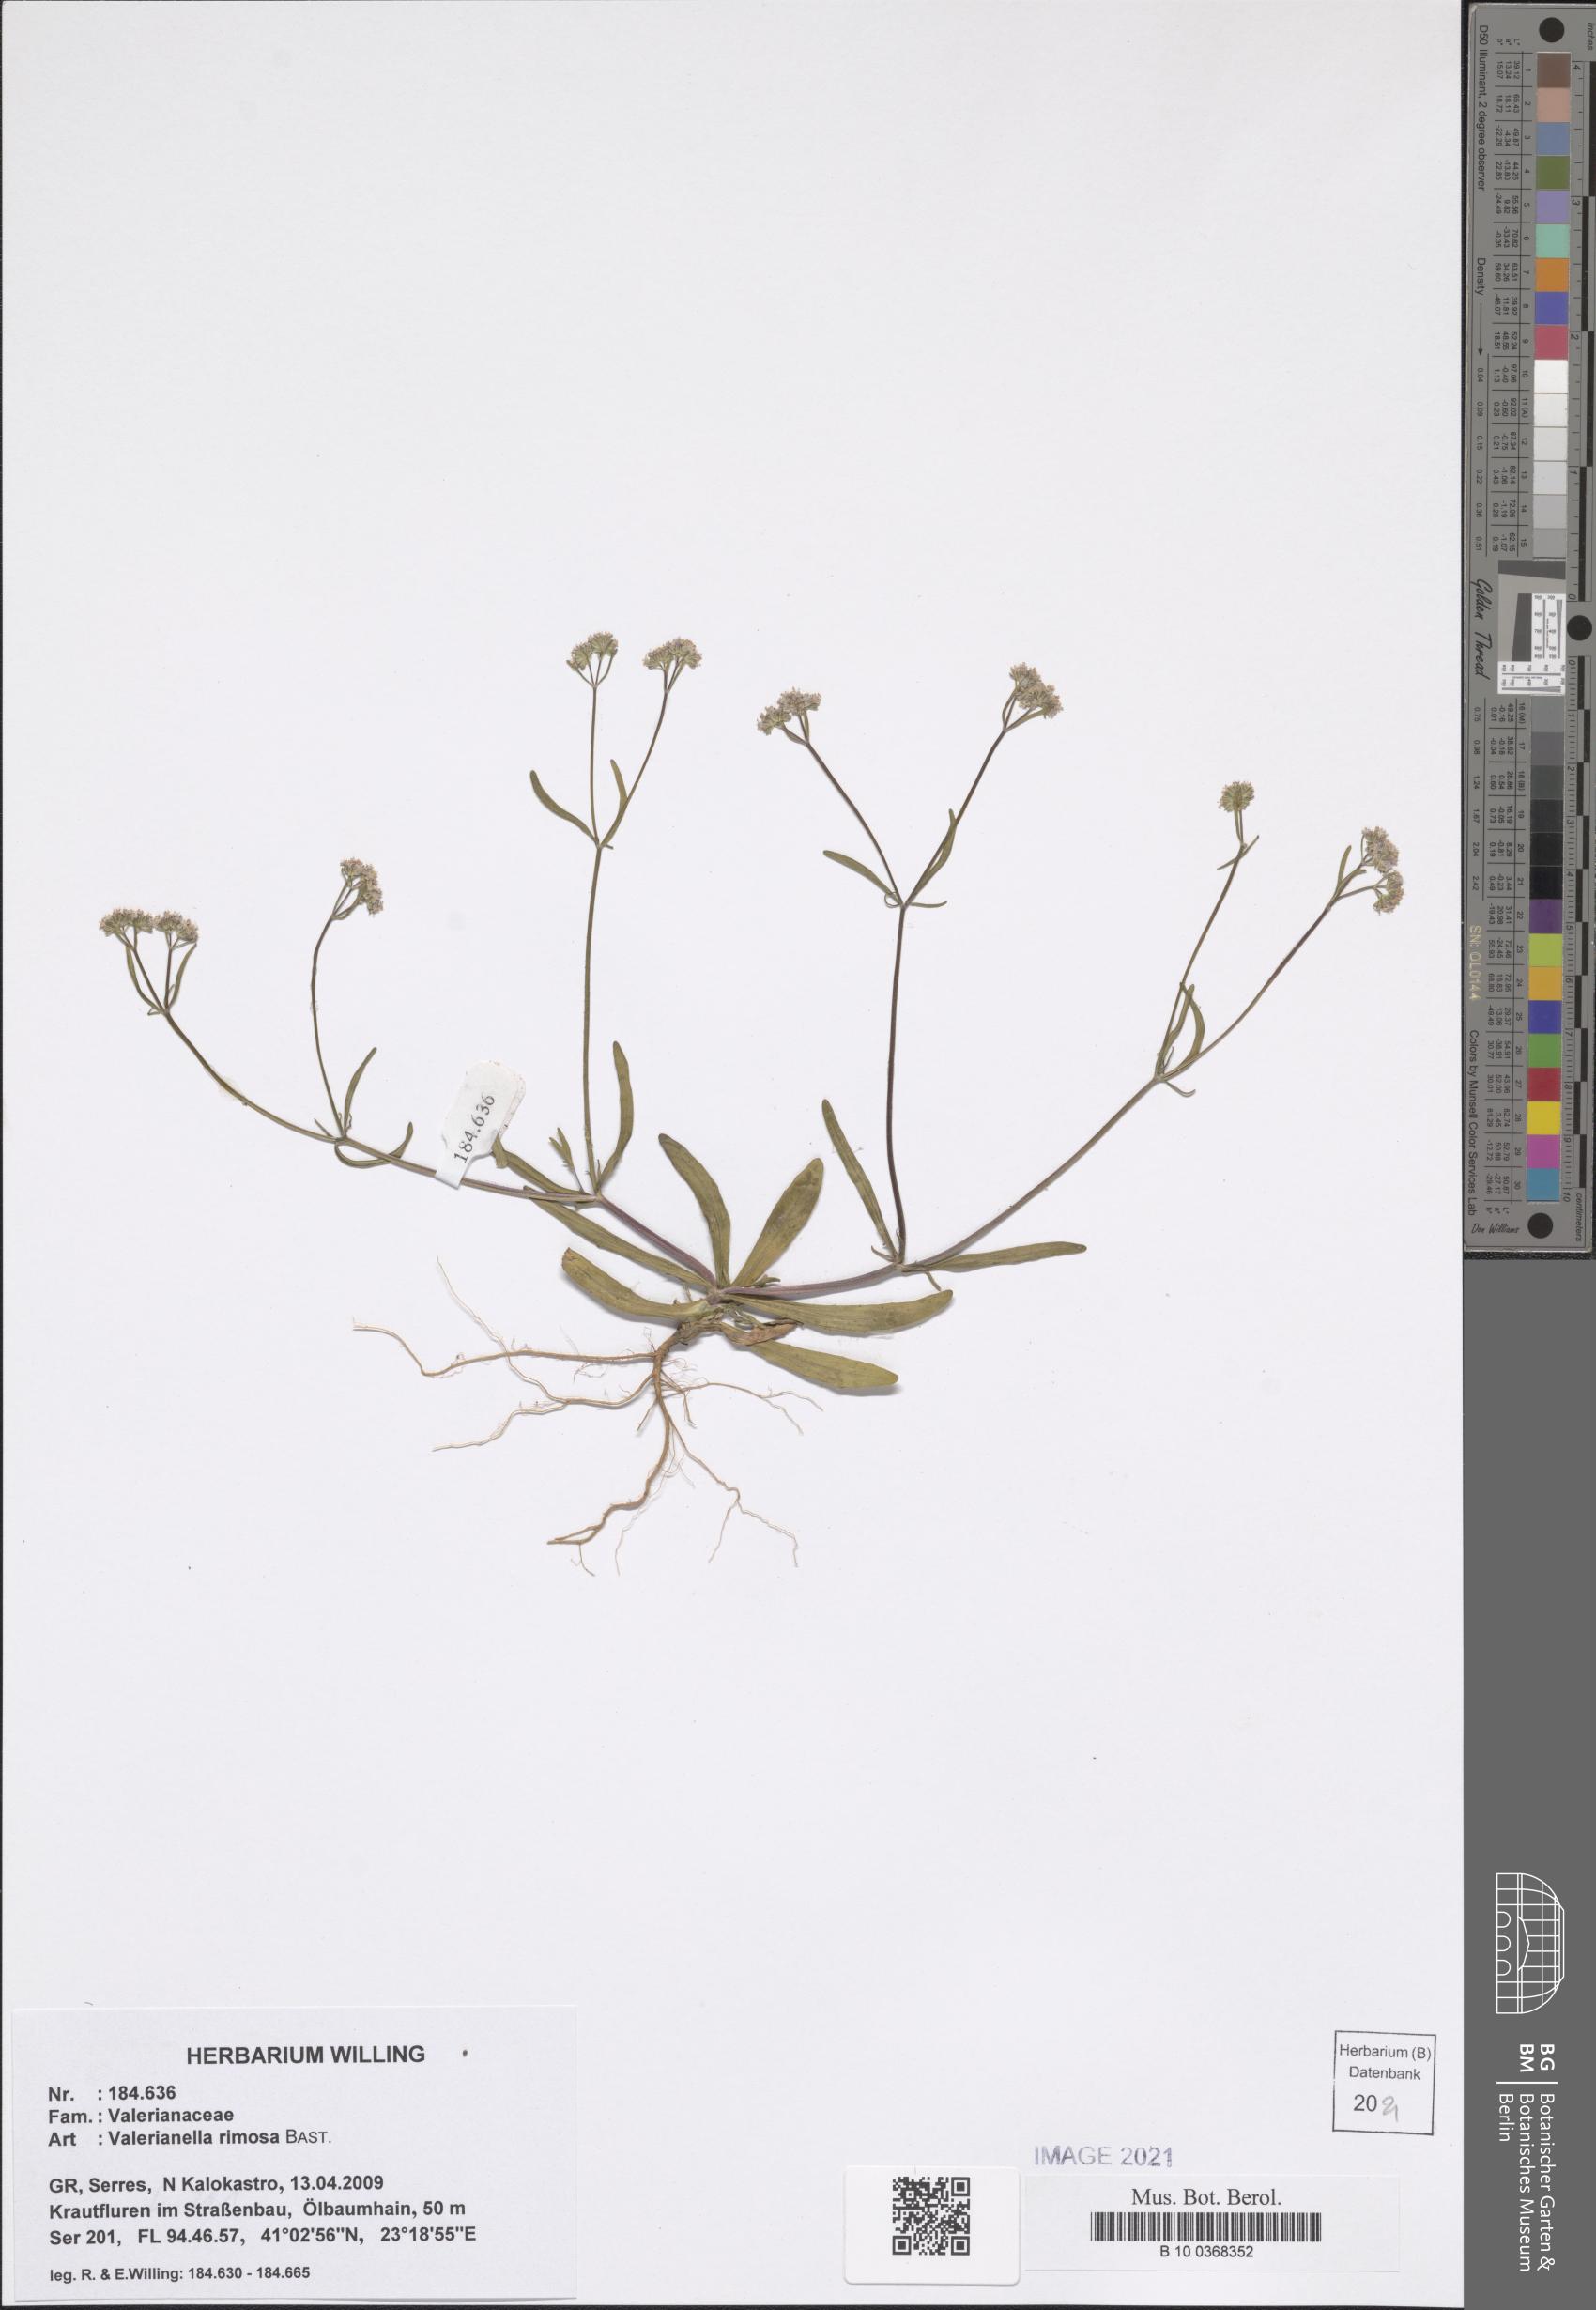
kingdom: Plantae
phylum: Tracheophyta
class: Magnoliopsida
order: Dipsacales
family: Caprifoliaceae
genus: Valerianella
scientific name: Valerianella rimosa
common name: Broad-fruited cornsalad
